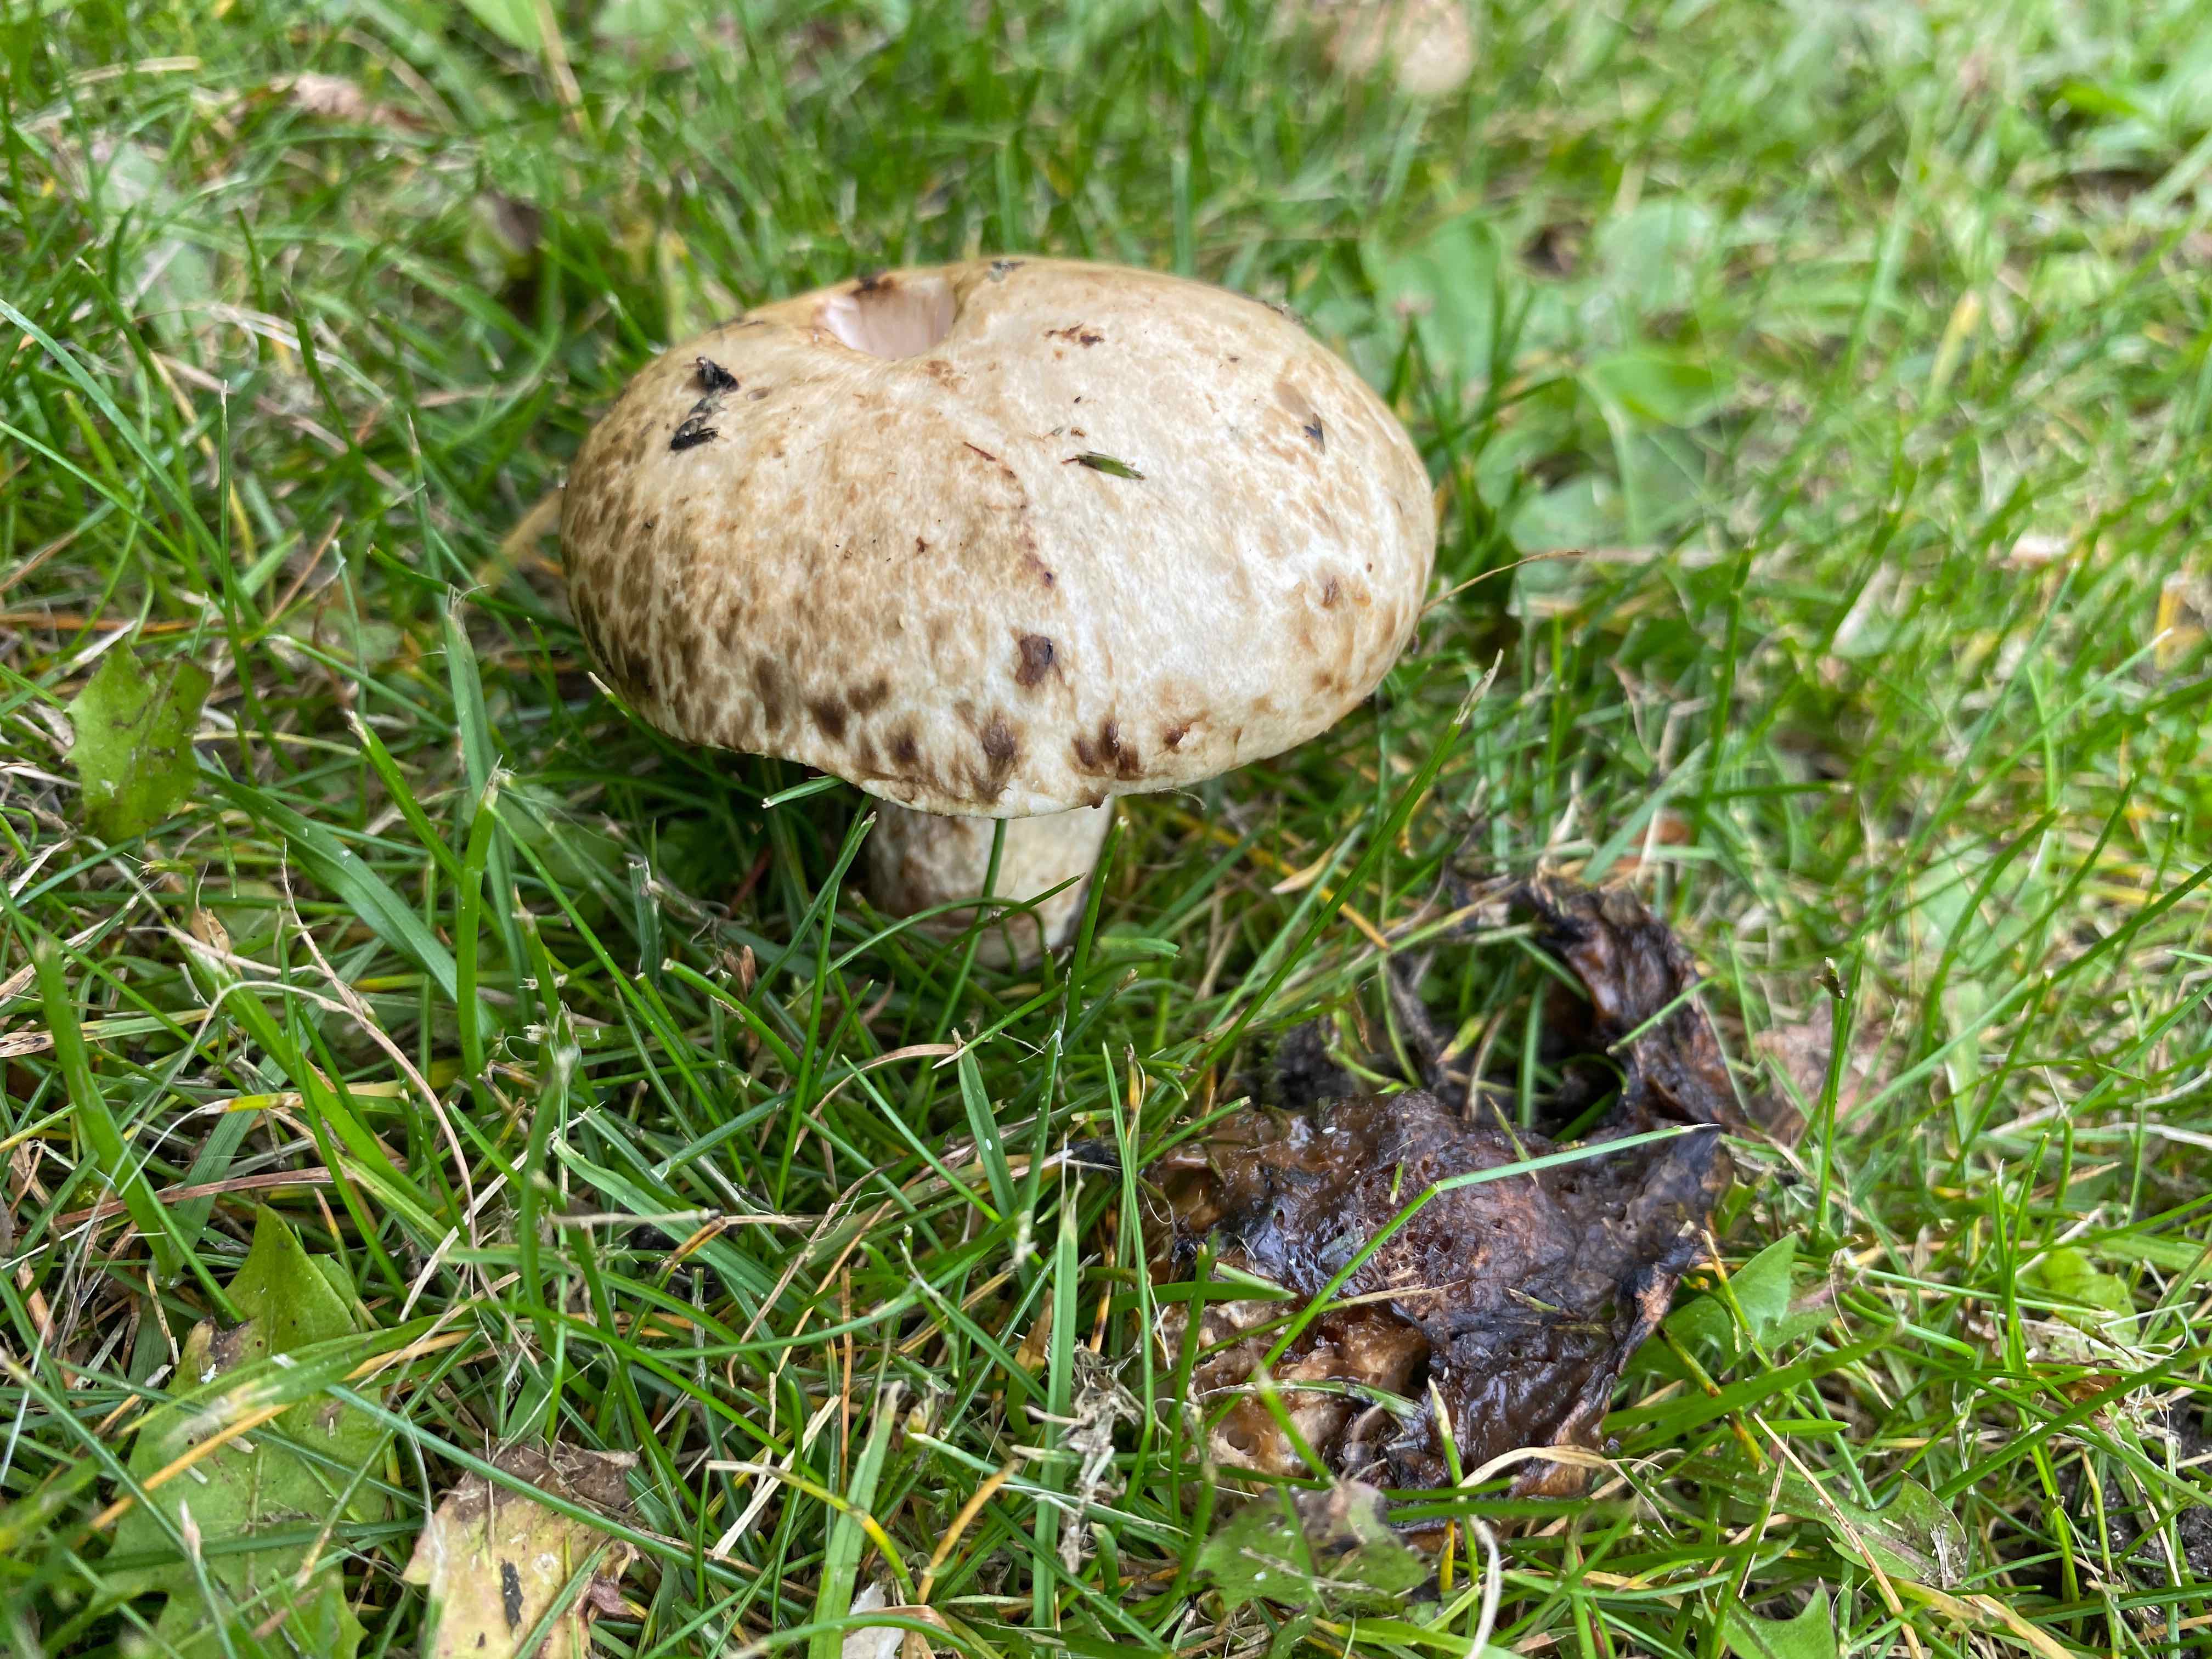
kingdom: Fungi
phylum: Basidiomycota
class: Agaricomycetes
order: Boletales
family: Suillaceae
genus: Suillus
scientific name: Suillus viscidus
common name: olivengrå slimrørhat
